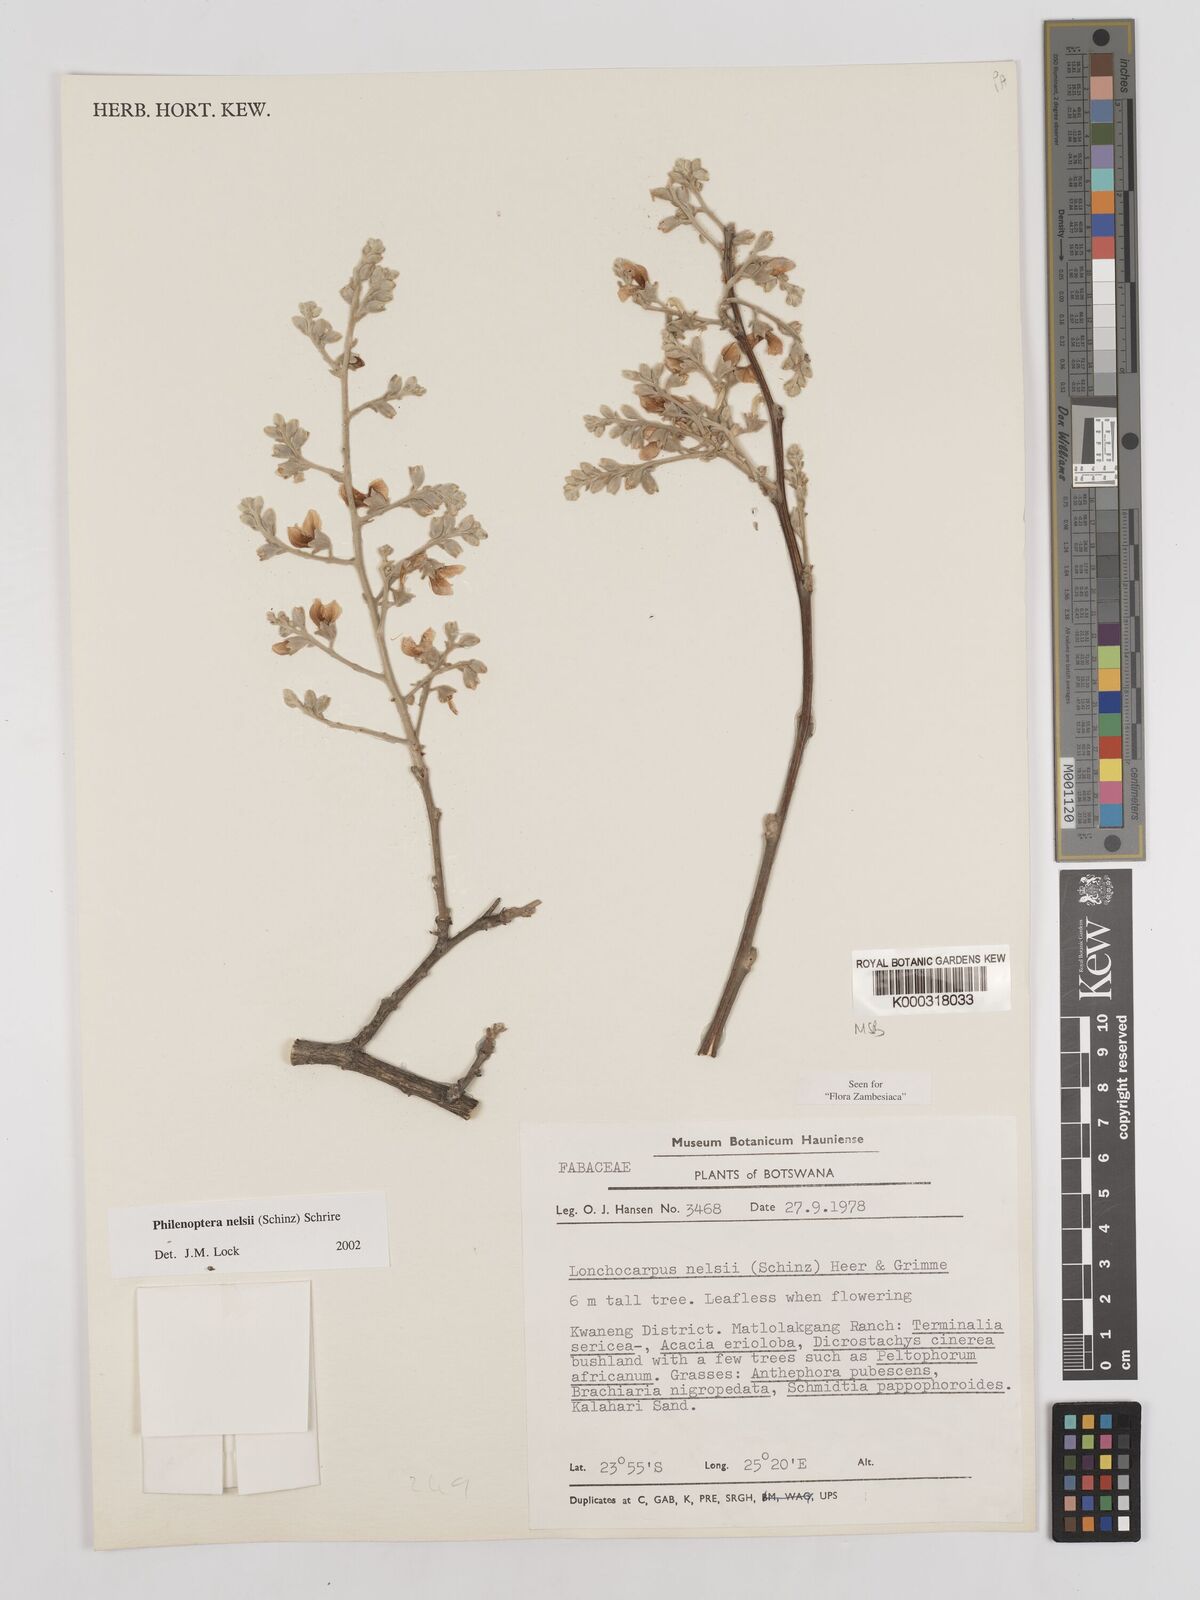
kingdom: Plantae
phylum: Tracheophyta
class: Magnoliopsida
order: Fabales
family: Fabaceae
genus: Philenoptera
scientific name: Philenoptera nelsii
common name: Kalahari apple-leaf
